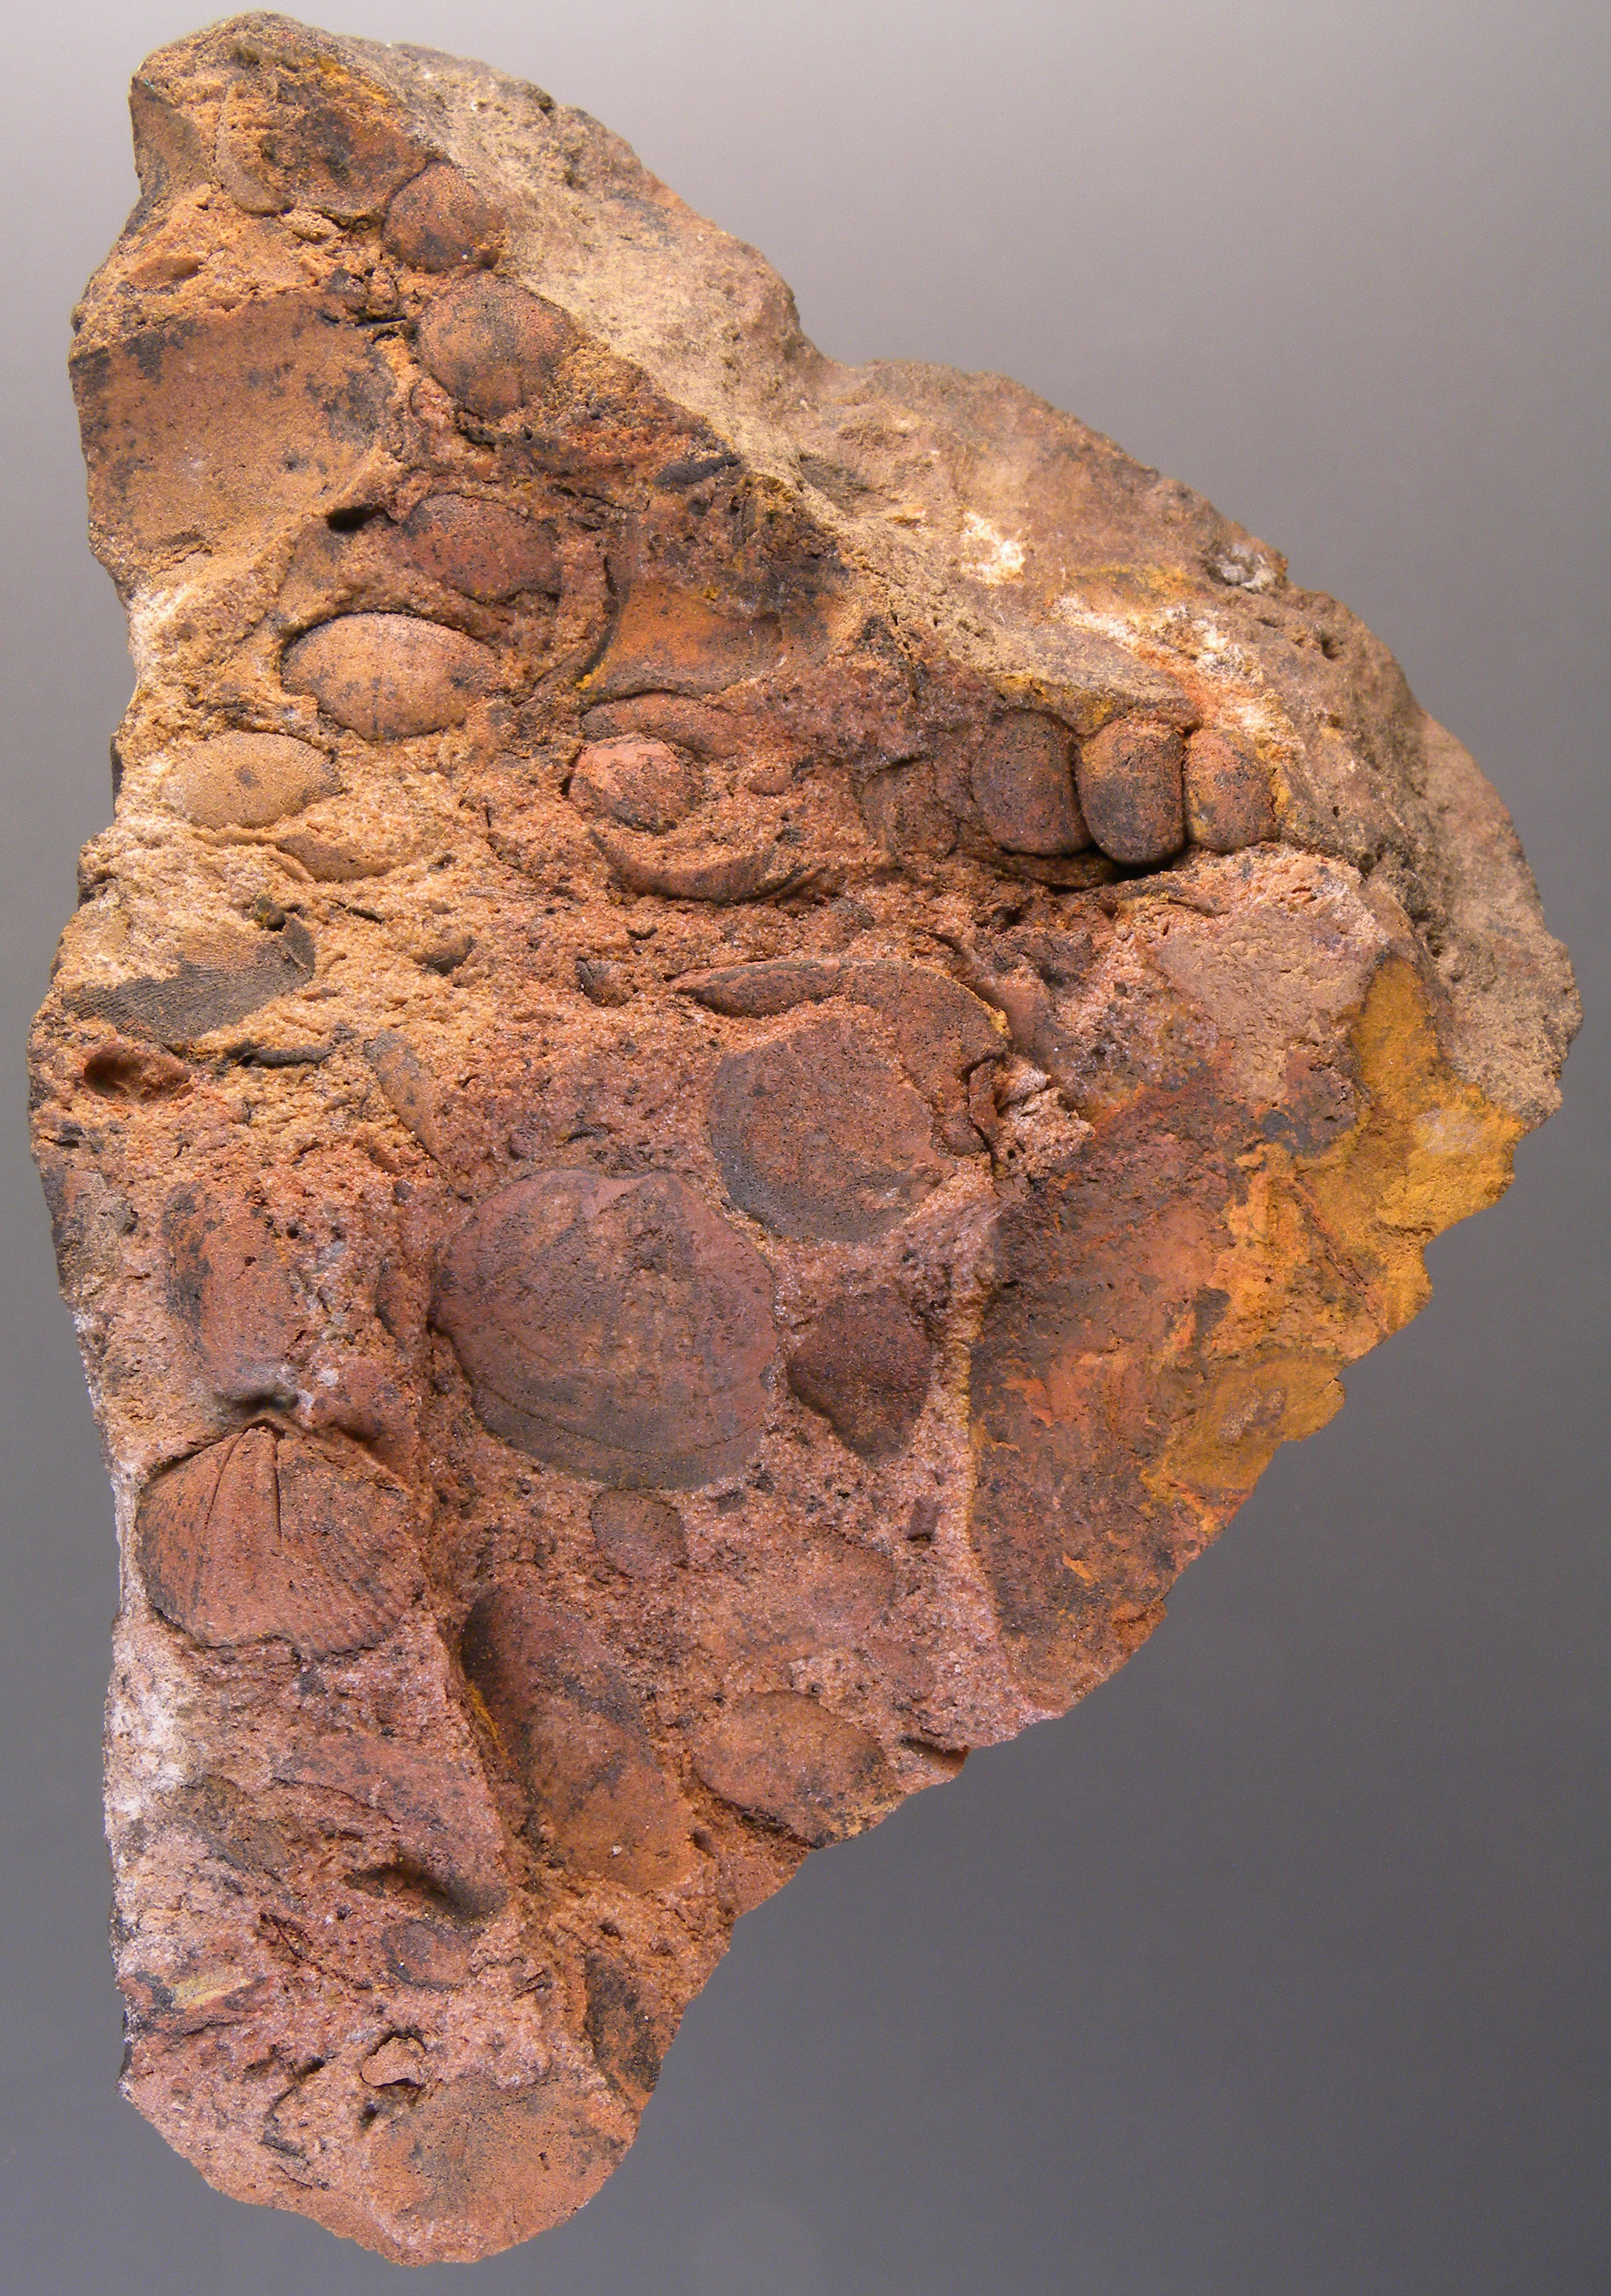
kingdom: Animalia
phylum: Mollusca
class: Bivalvia
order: Nuculanida
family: Malletiidae
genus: Palaeoneilo
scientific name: Palaeoneilo
